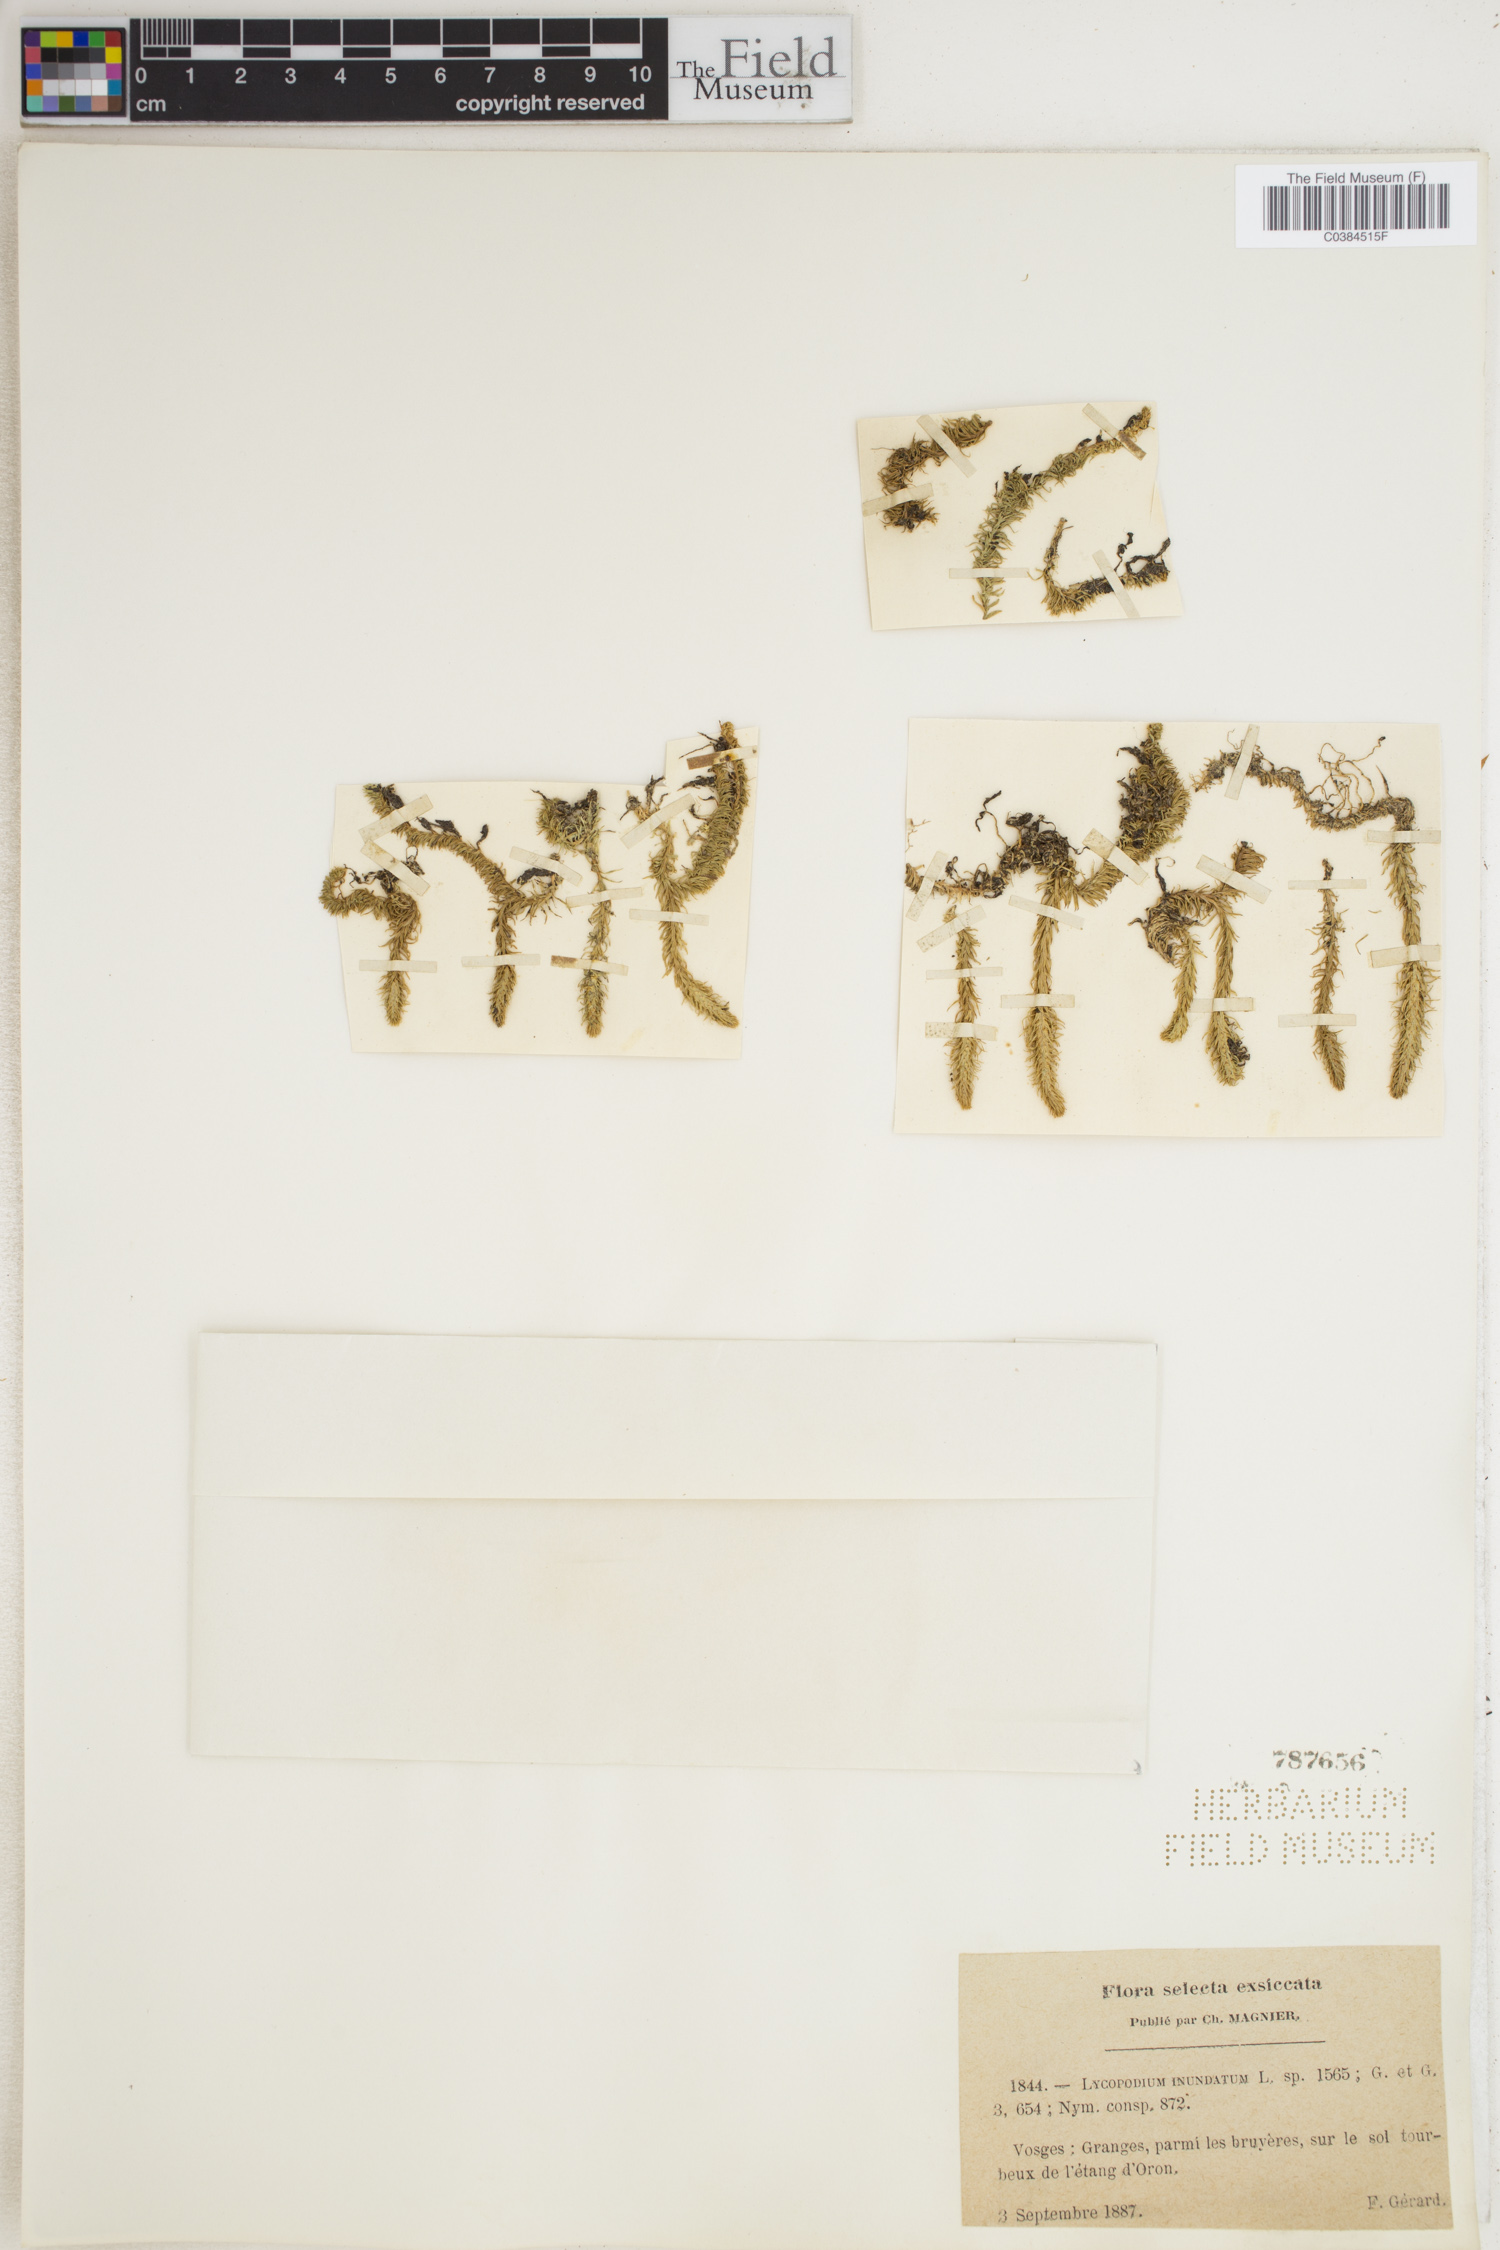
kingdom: Plantae
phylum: Tracheophyta
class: Lycopodiopsida
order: Lycopodiales
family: Lycopodiaceae
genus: Lycopodiella
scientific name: Lycopodiella inundata
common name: Marsh clubmoss
